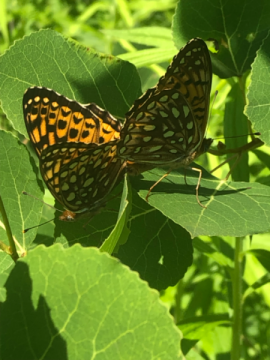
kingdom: Animalia
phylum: Arthropoda
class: Insecta
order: Lepidoptera
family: Nymphalidae
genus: Speyeria
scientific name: Speyeria atlantis
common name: Atlantis Fritillary
